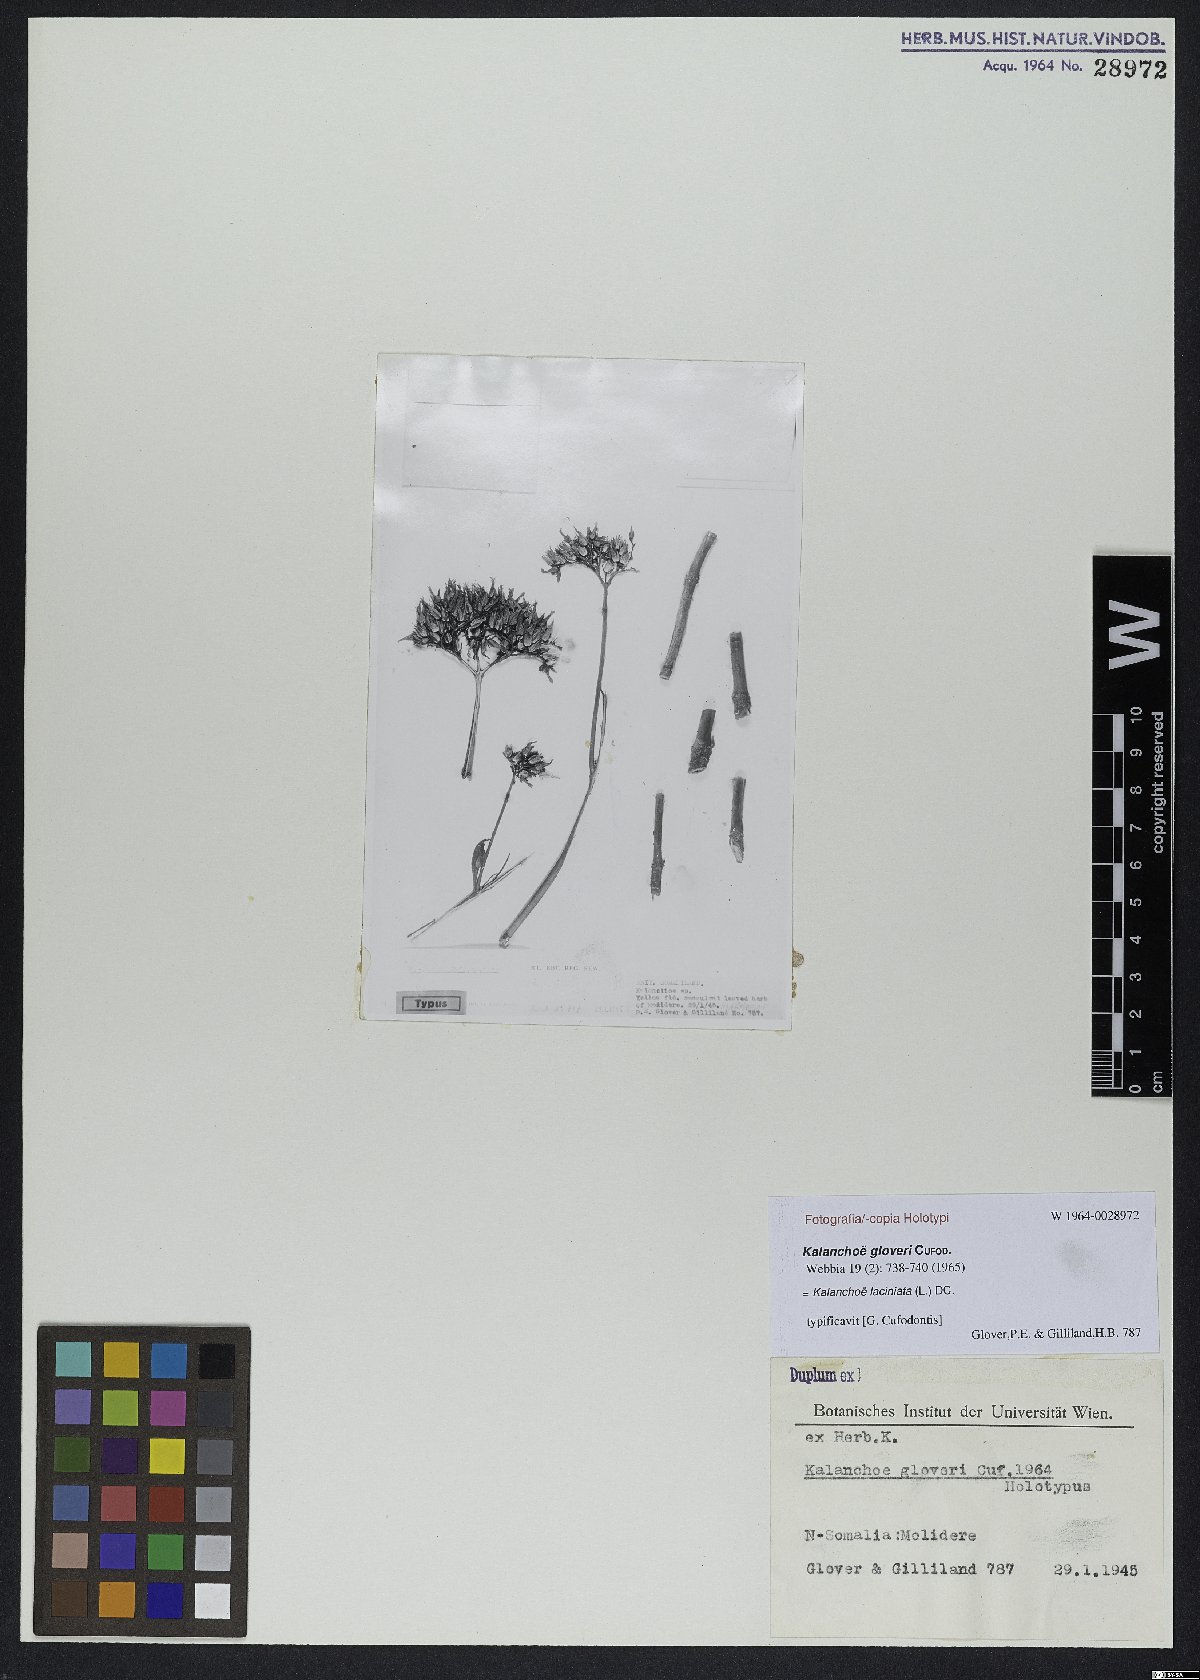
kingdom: Plantae
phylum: Tracheophyta
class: Magnoliopsida
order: Saxifragales
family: Crassulaceae
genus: Kalanchoe
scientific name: Kalanchoe laciniata
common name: Christmastree plant
